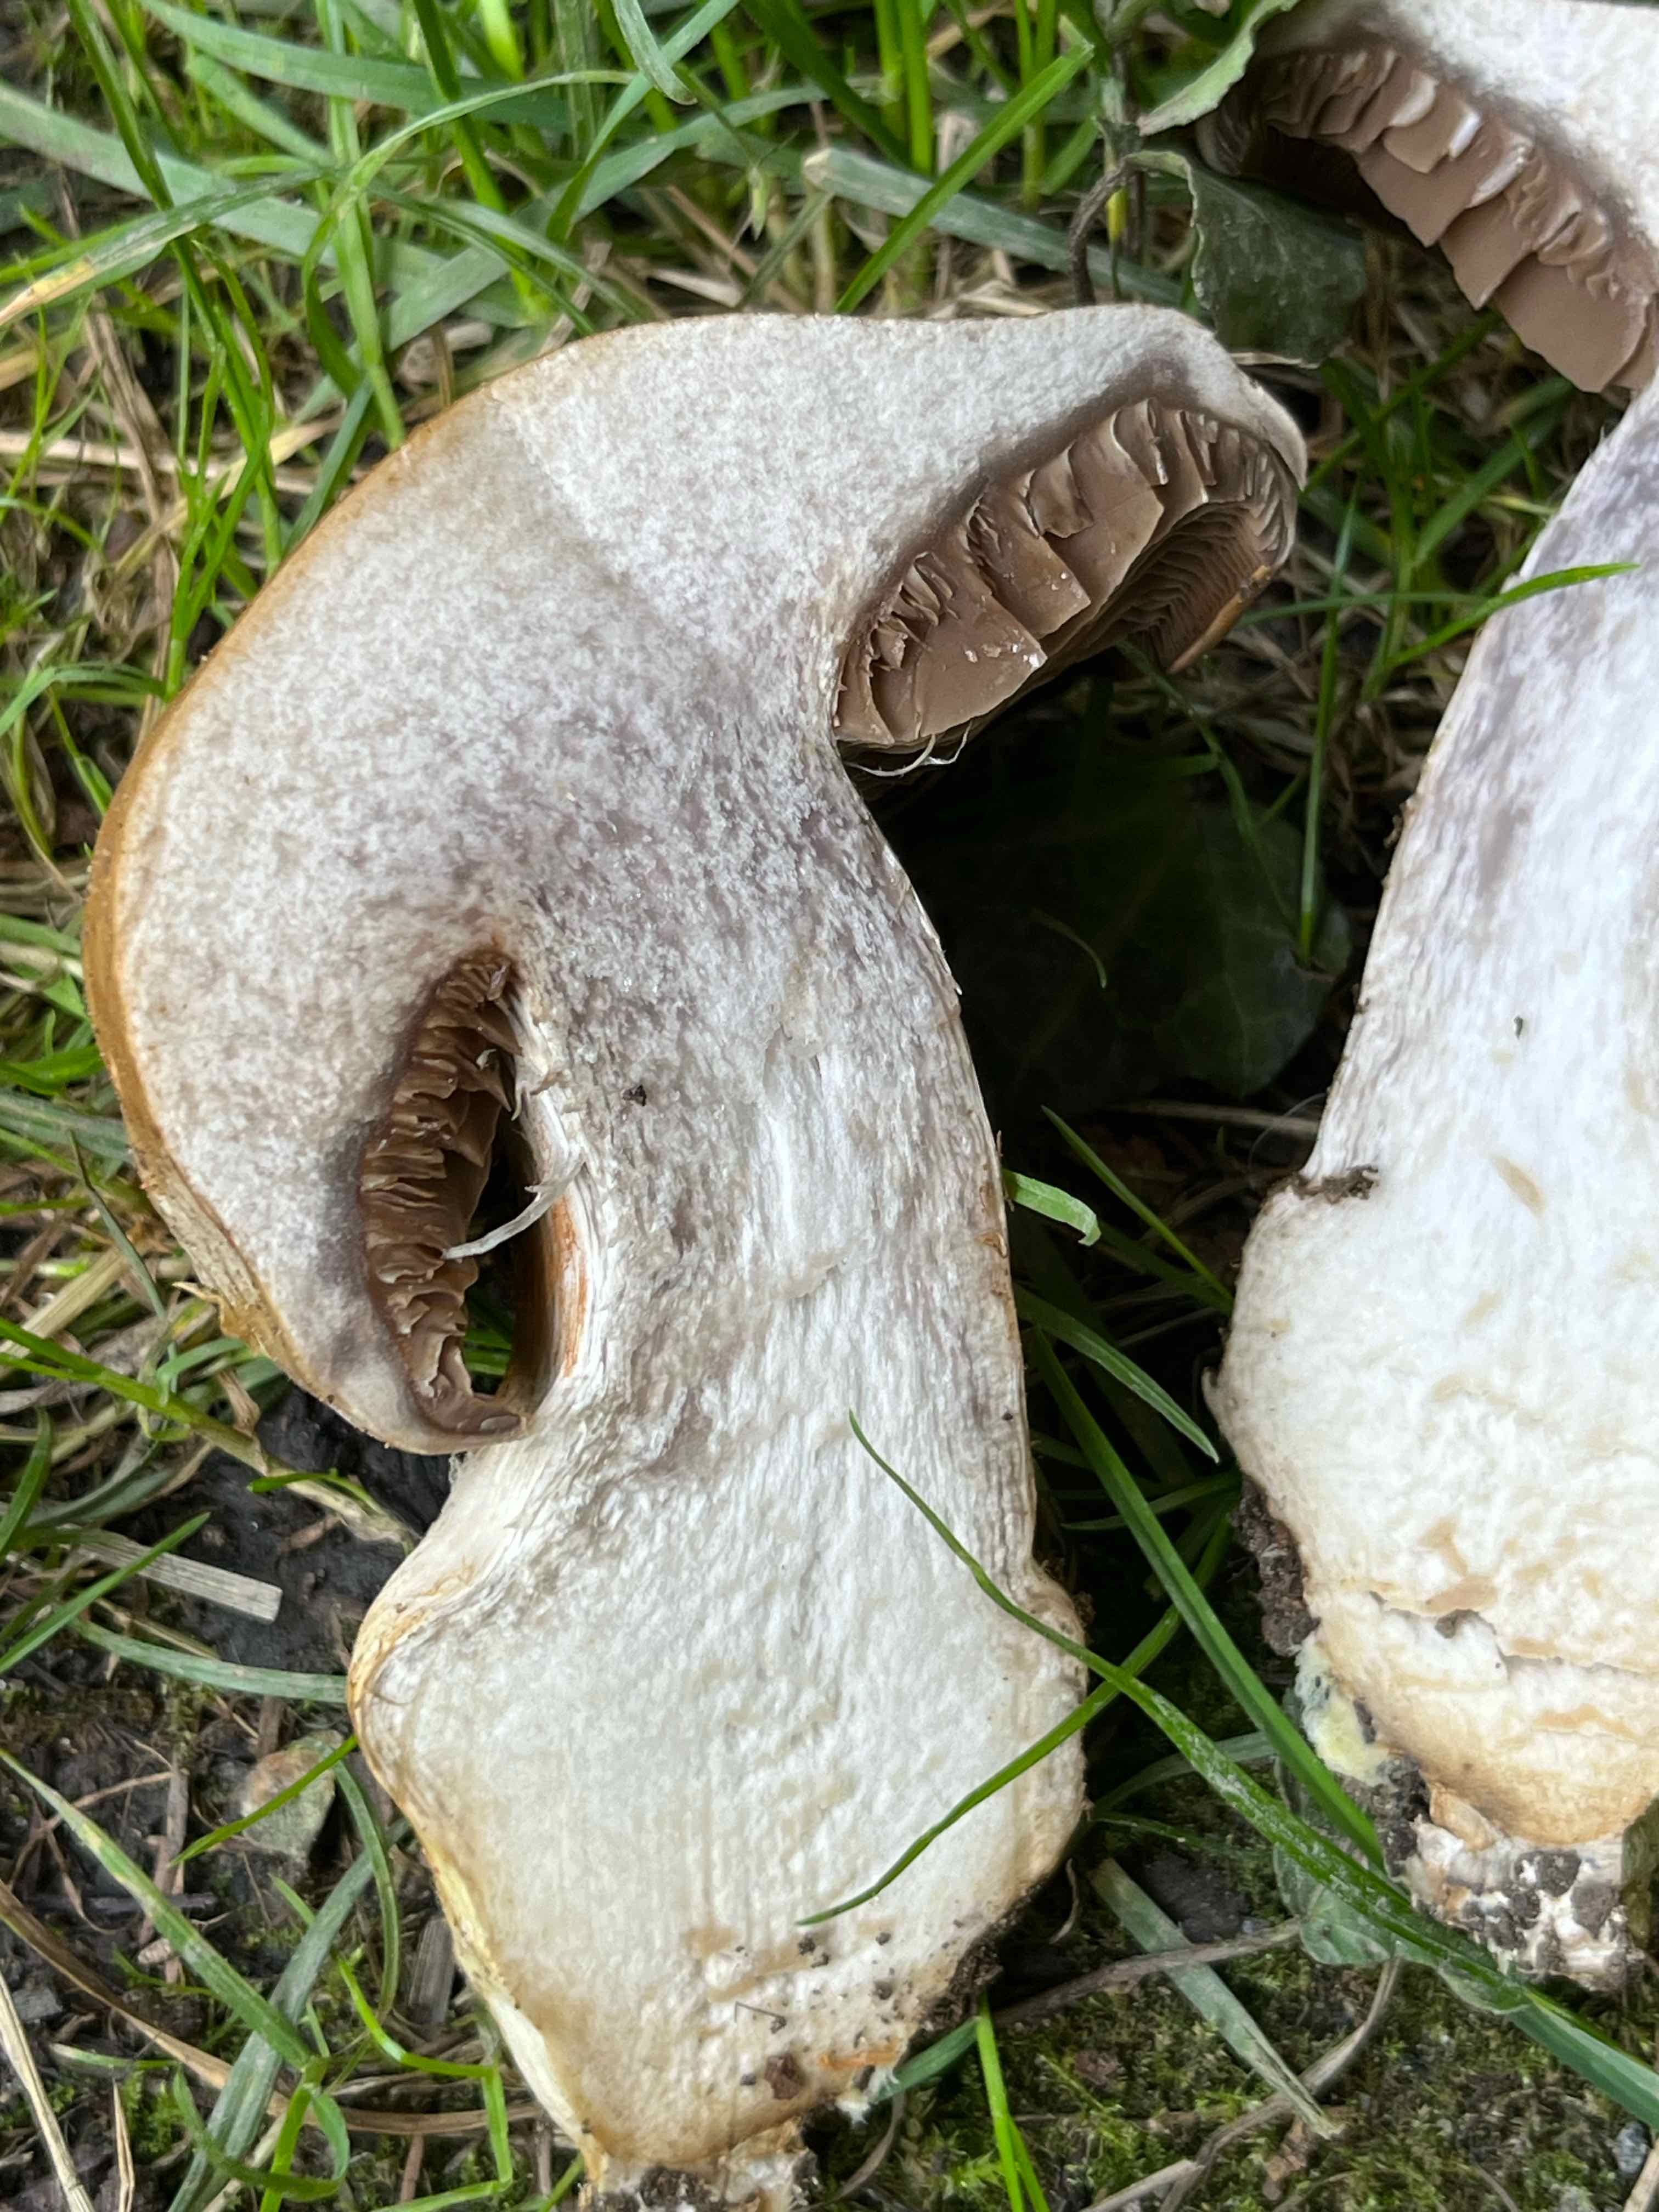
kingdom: Fungi
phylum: Basidiomycota
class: Agaricomycetes
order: Agaricales
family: Cortinariaceae
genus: Cortinarius
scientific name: Cortinarius
